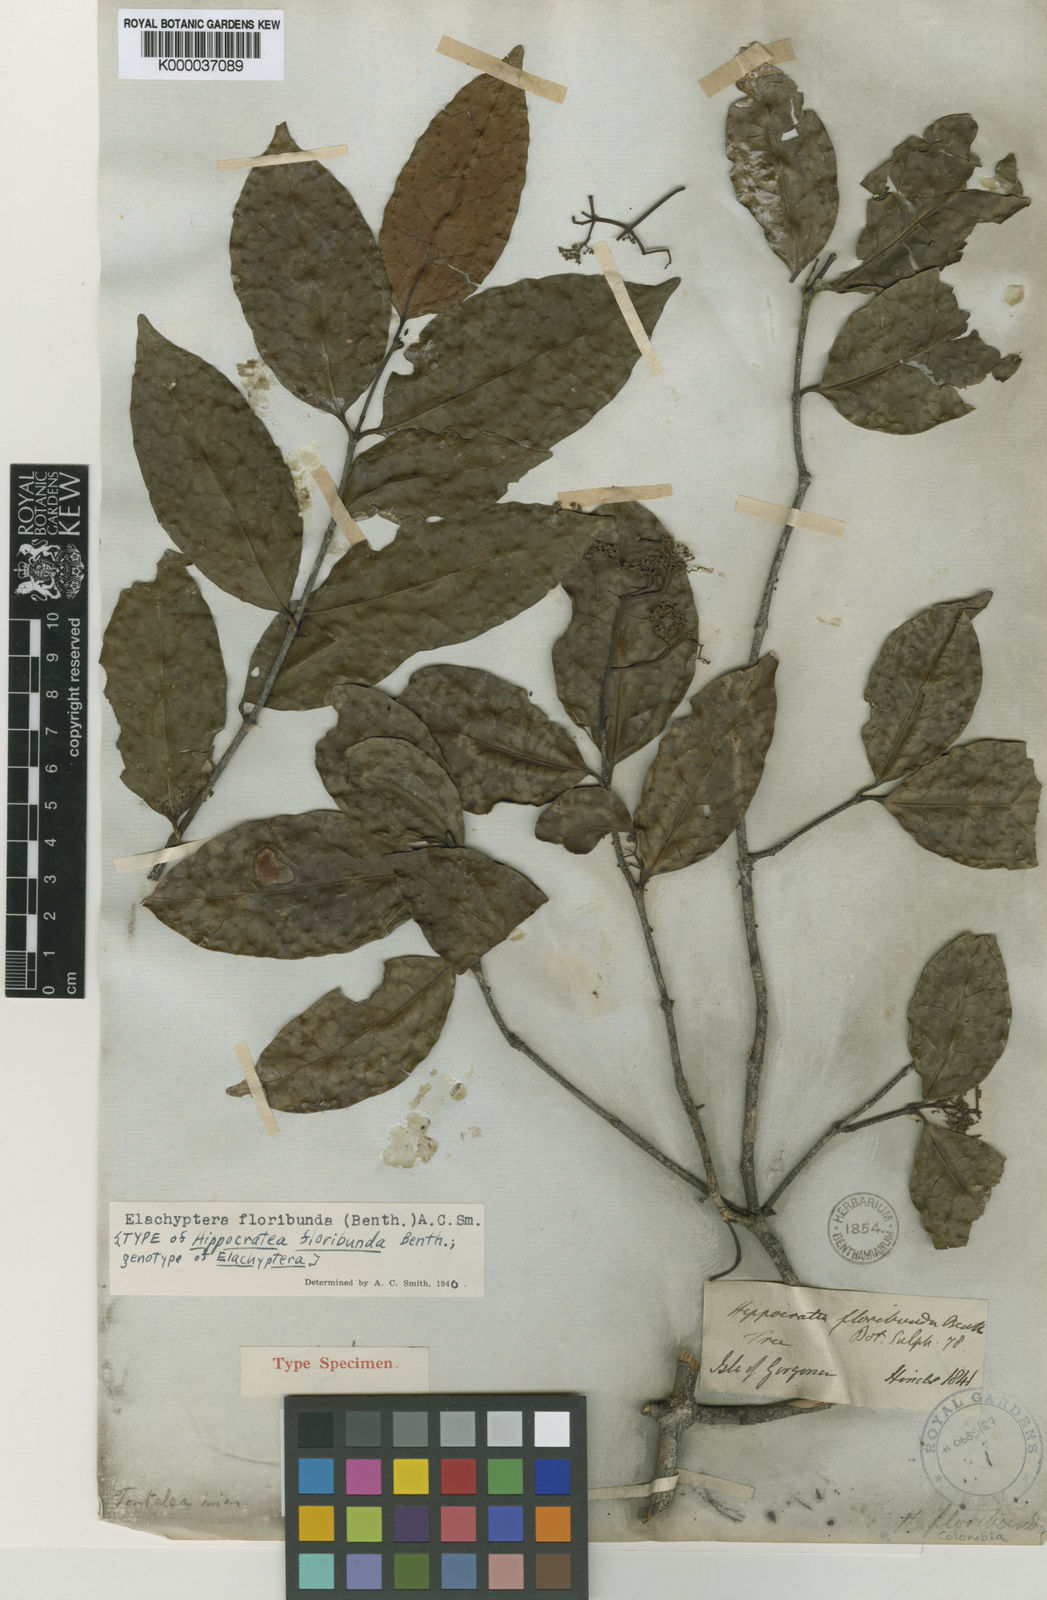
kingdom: Plantae
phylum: Tracheophyta
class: Magnoliopsida
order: Celastrales
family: Celastraceae
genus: Elachyptera
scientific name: Elachyptera floribunda
